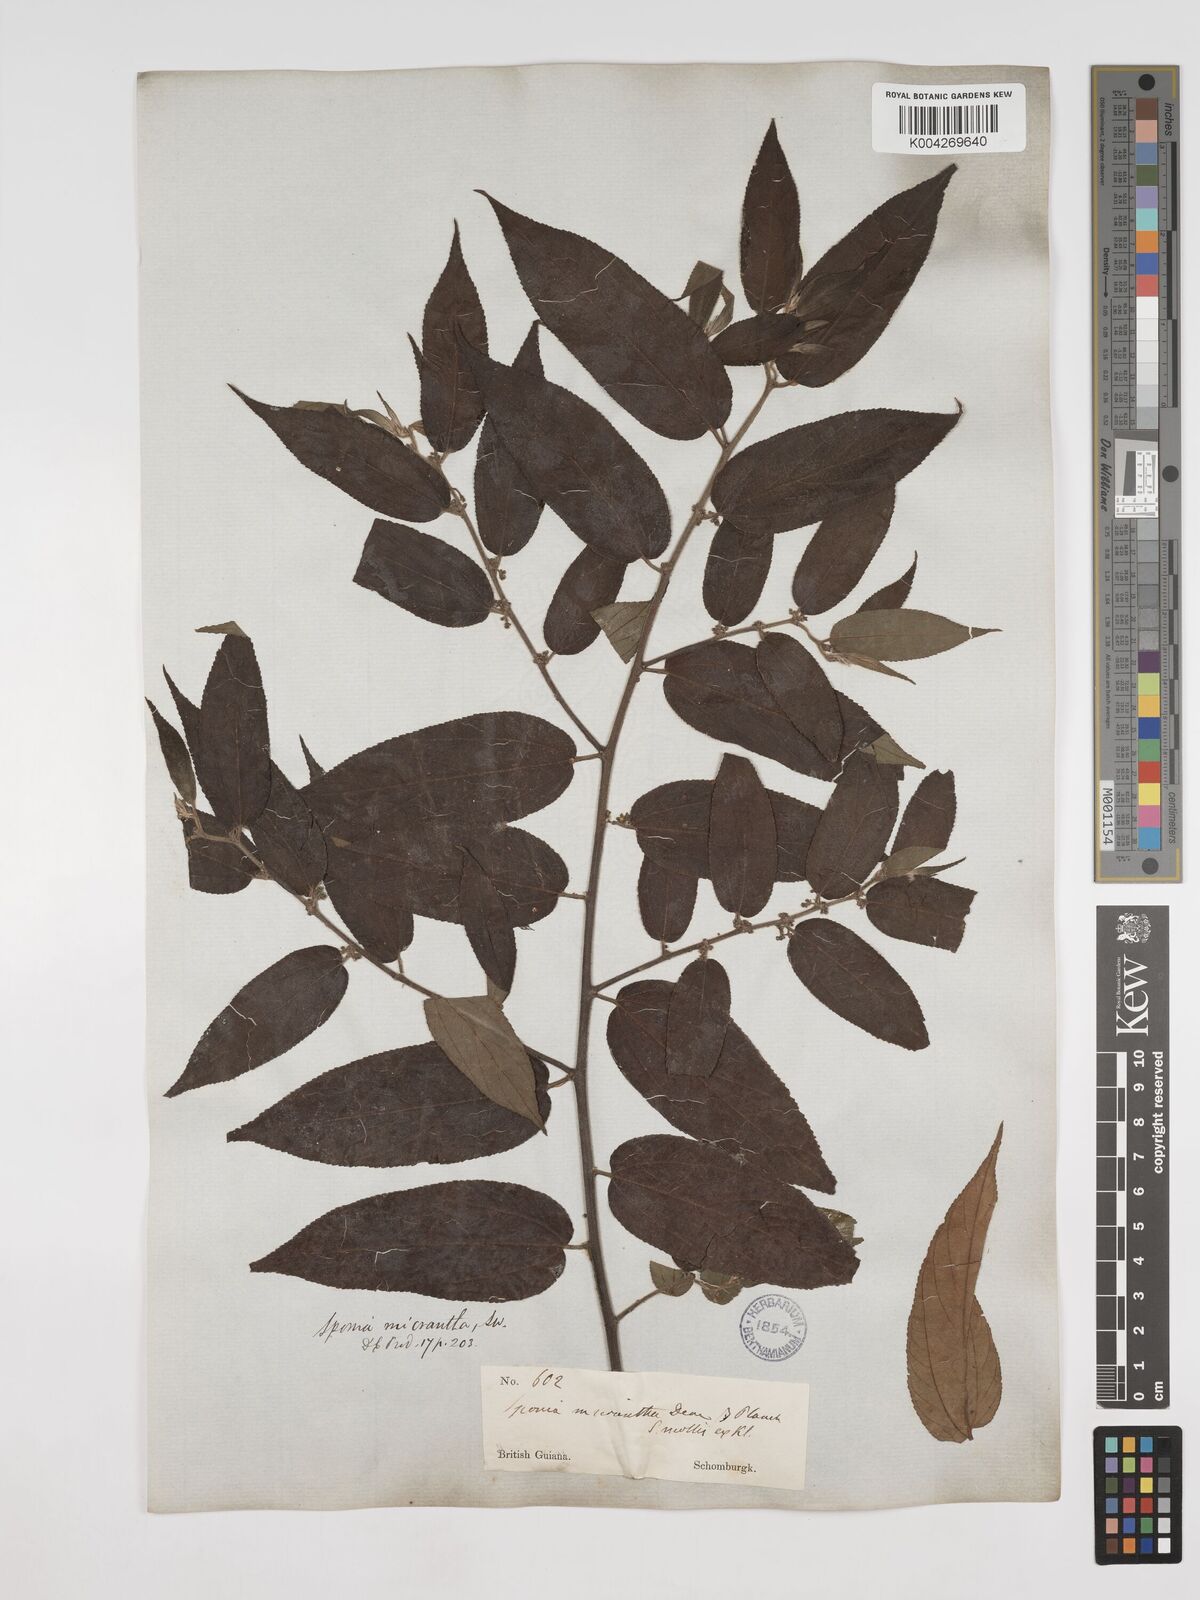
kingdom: Plantae
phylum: Tracheophyta
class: Magnoliopsida
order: Rosales
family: Cannabaceae
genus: Trema
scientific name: Trema micranthum
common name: Jamaican nettletree
